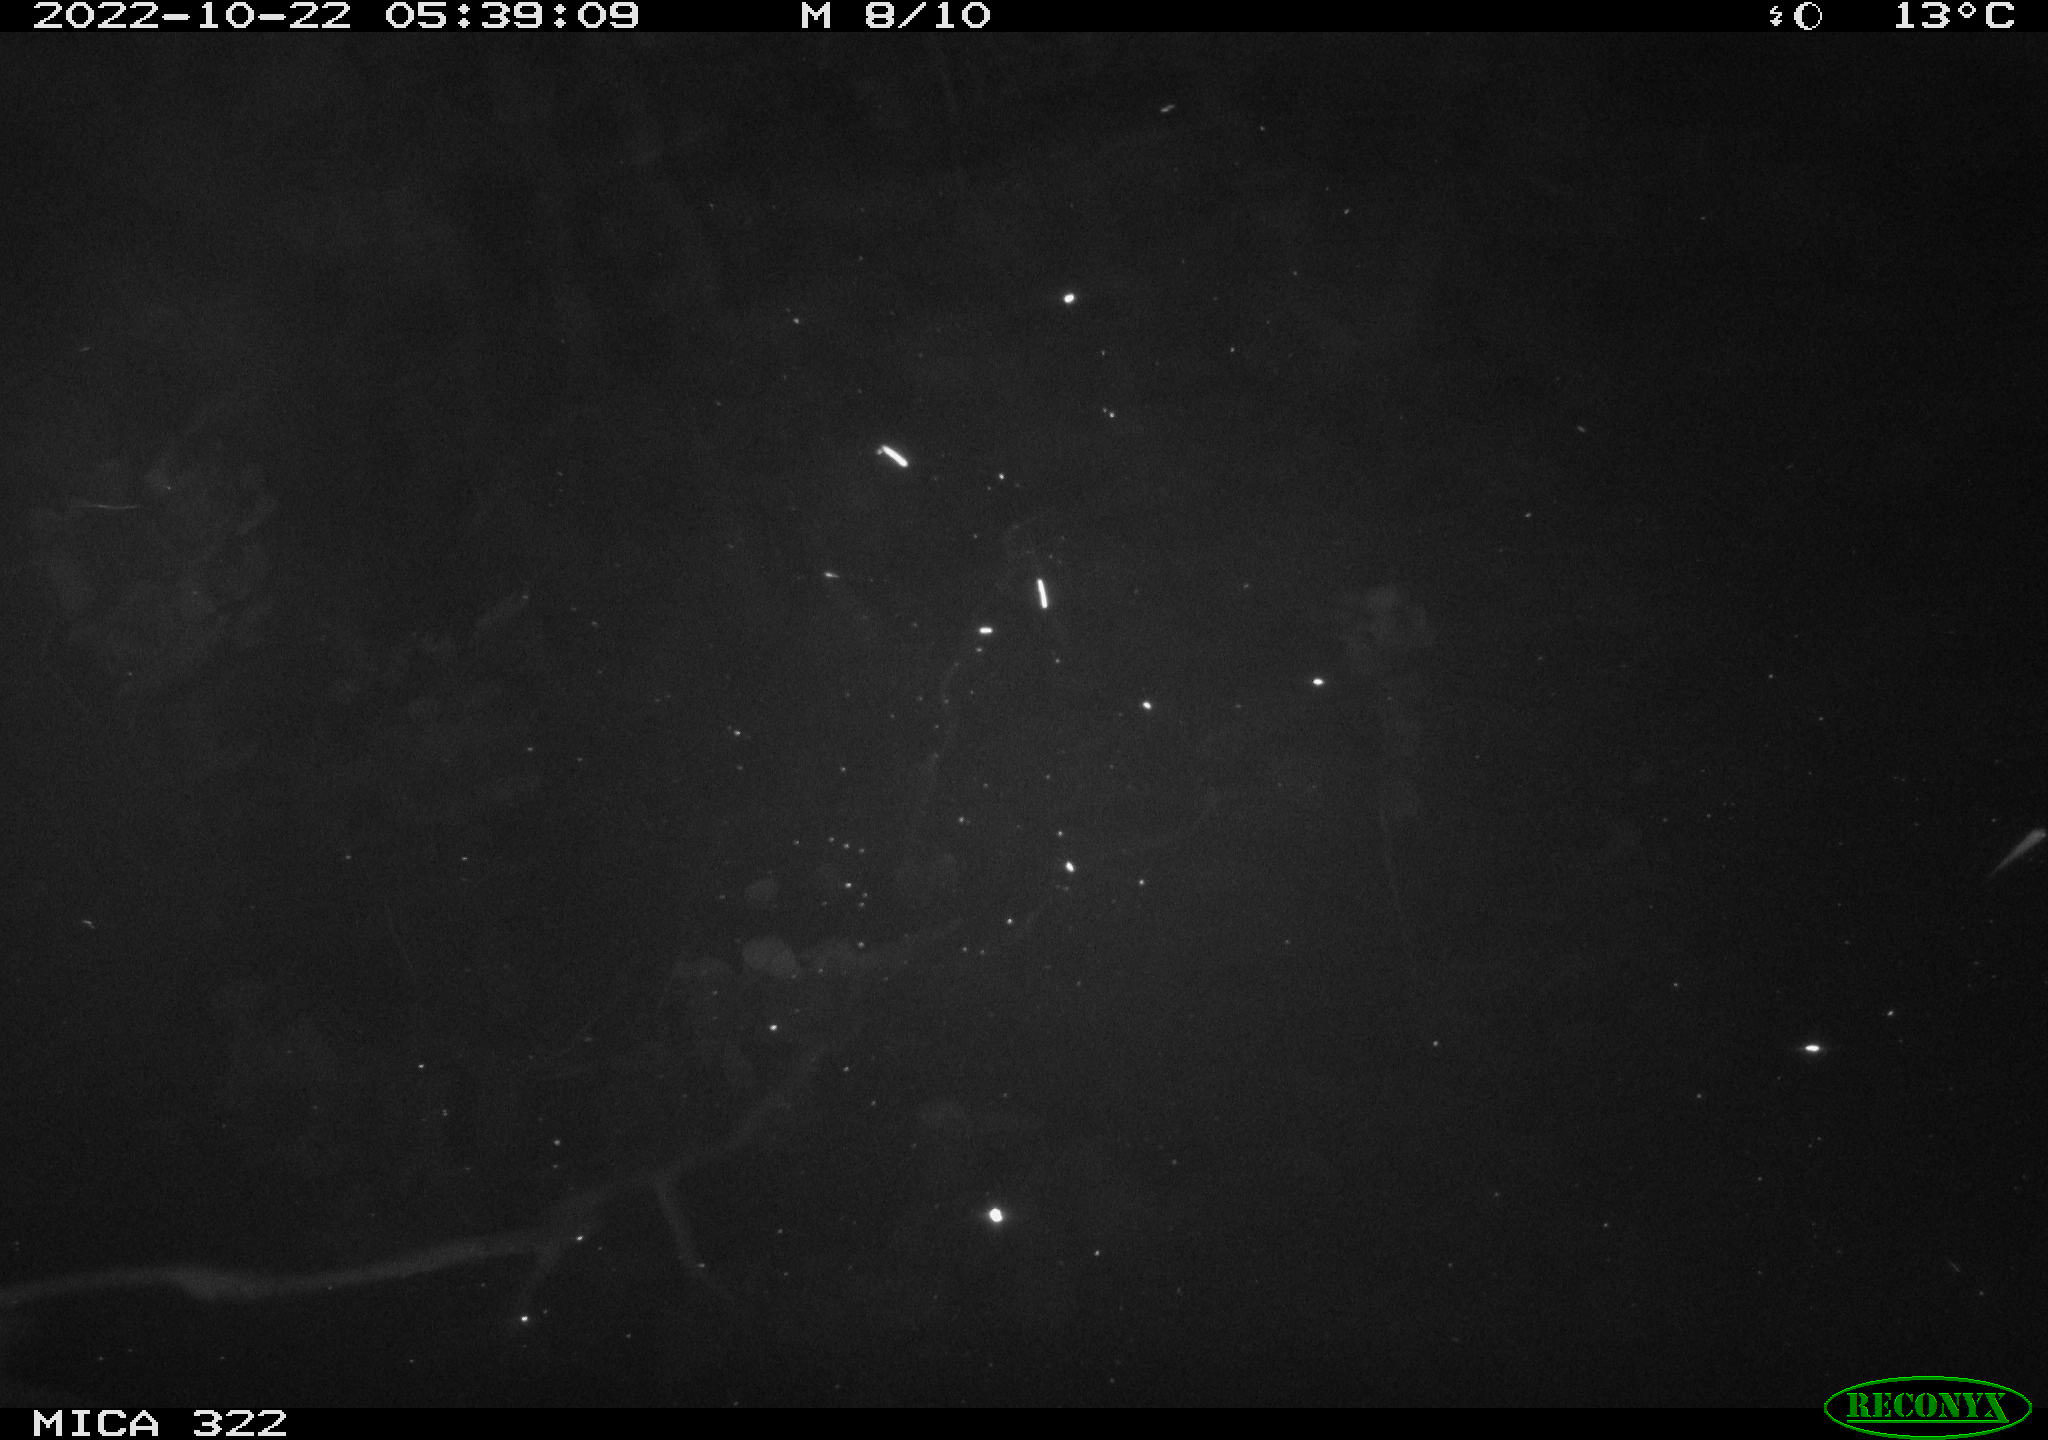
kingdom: Animalia
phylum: Chordata
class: Mammalia
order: Rodentia
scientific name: Rodentia
